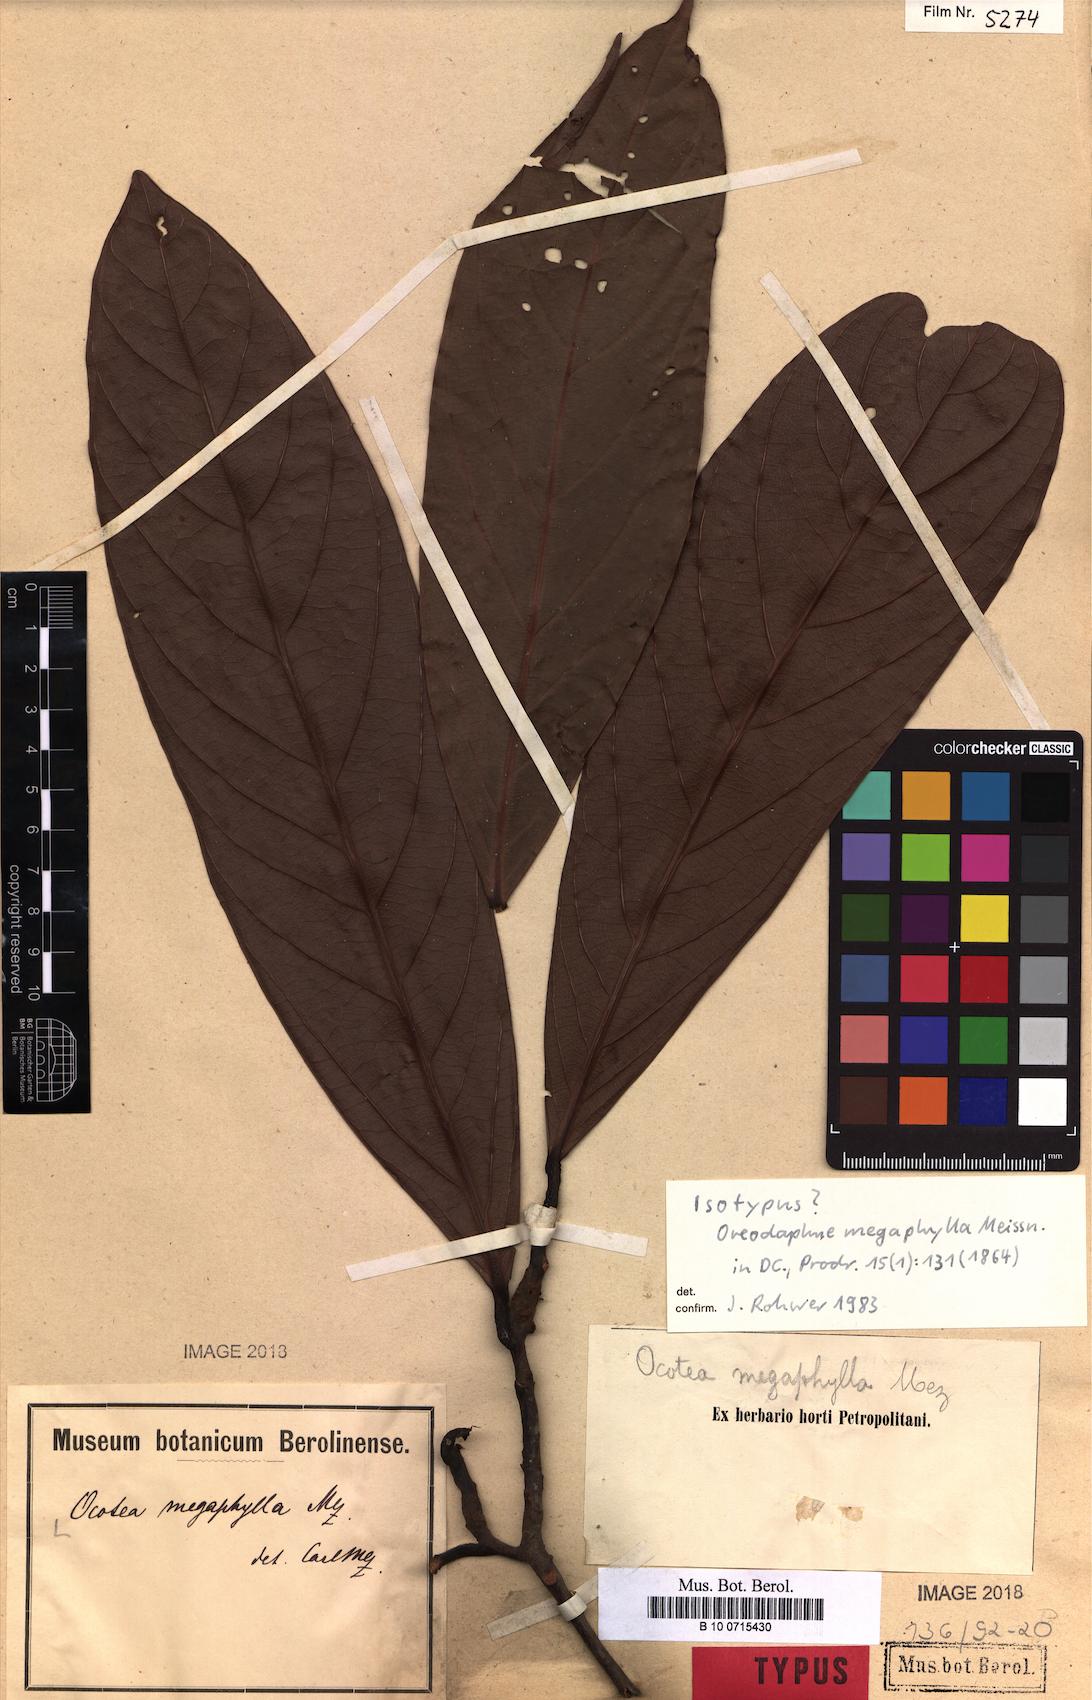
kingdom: Plantae
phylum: Tracheophyta
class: Magnoliopsida
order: Laurales
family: Lauraceae
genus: Ocotea
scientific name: Ocotea megaphylla
